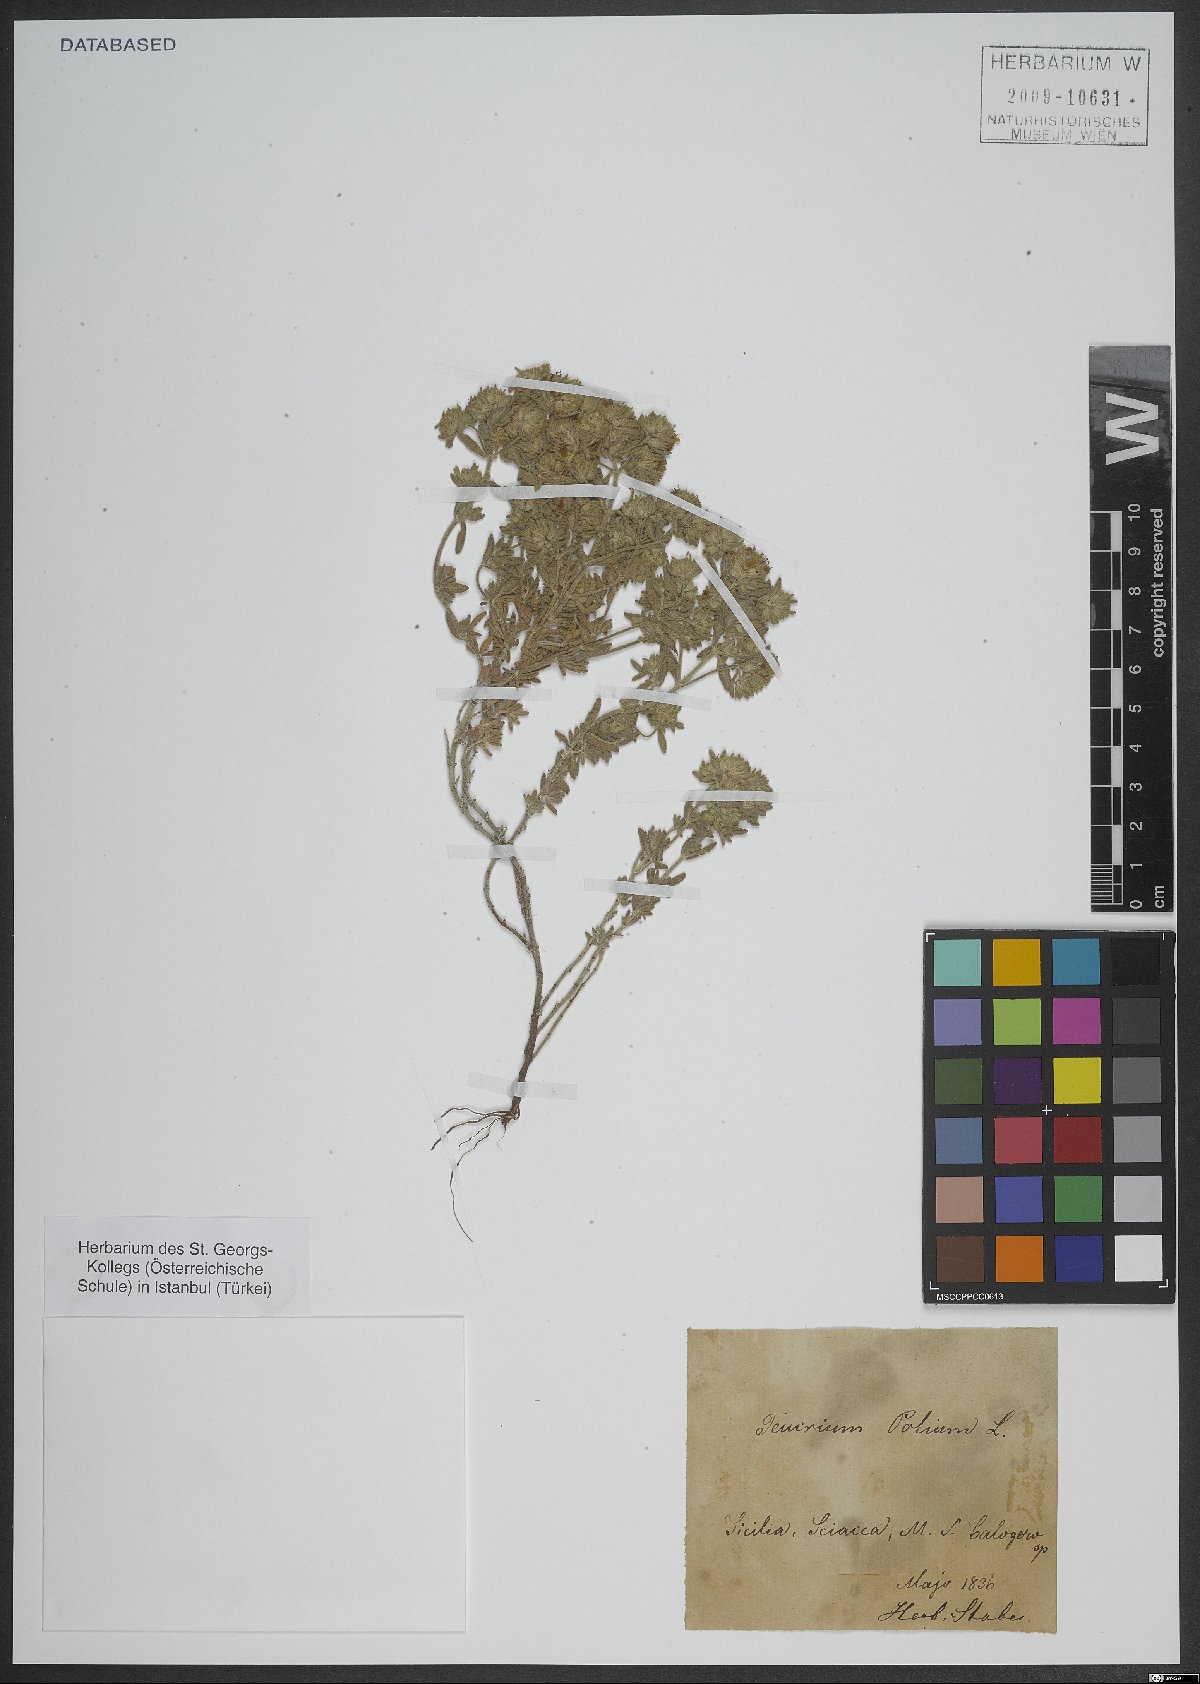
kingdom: Plantae
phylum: Tracheophyta
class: Magnoliopsida
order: Lamiales
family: Lamiaceae
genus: Teucrium
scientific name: Teucrium polium
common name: Poley
